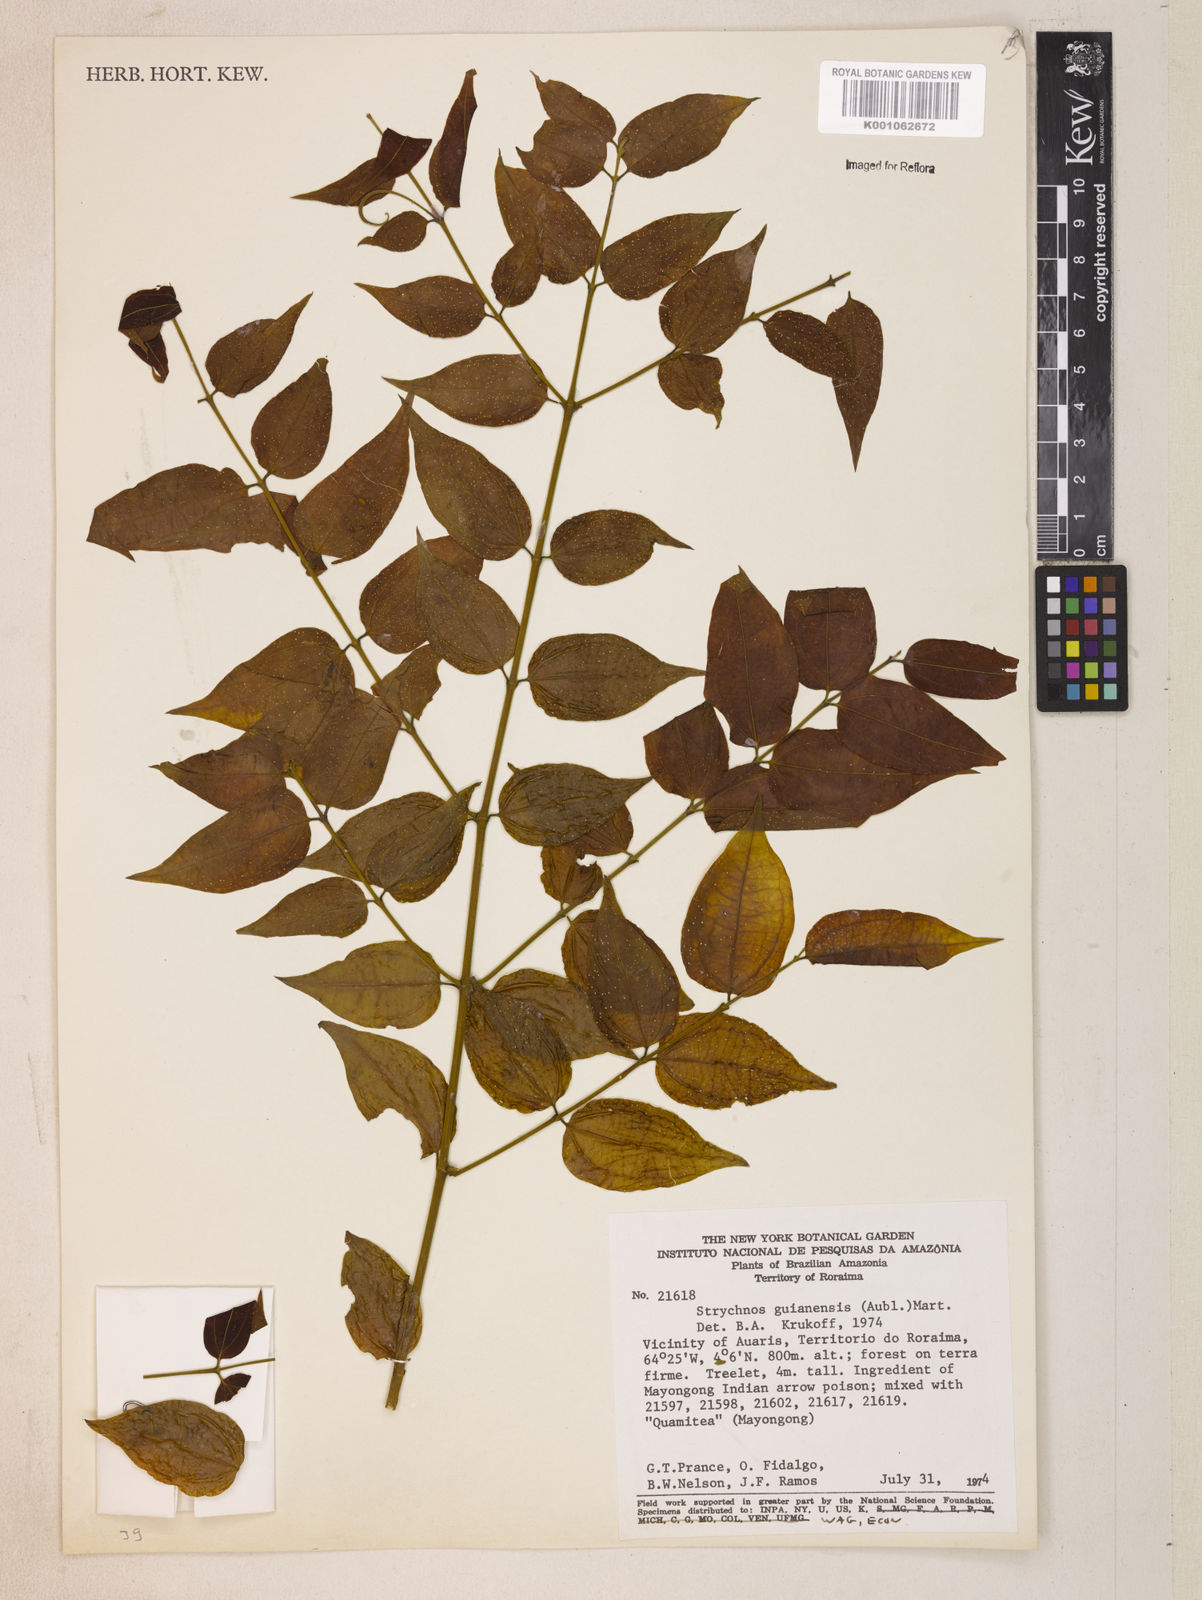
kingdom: Plantae
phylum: Tracheophyta
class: Magnoliopsida
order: Gentianales
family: Loganiaceae
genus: Strychnos
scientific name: Strychnos guianensis
